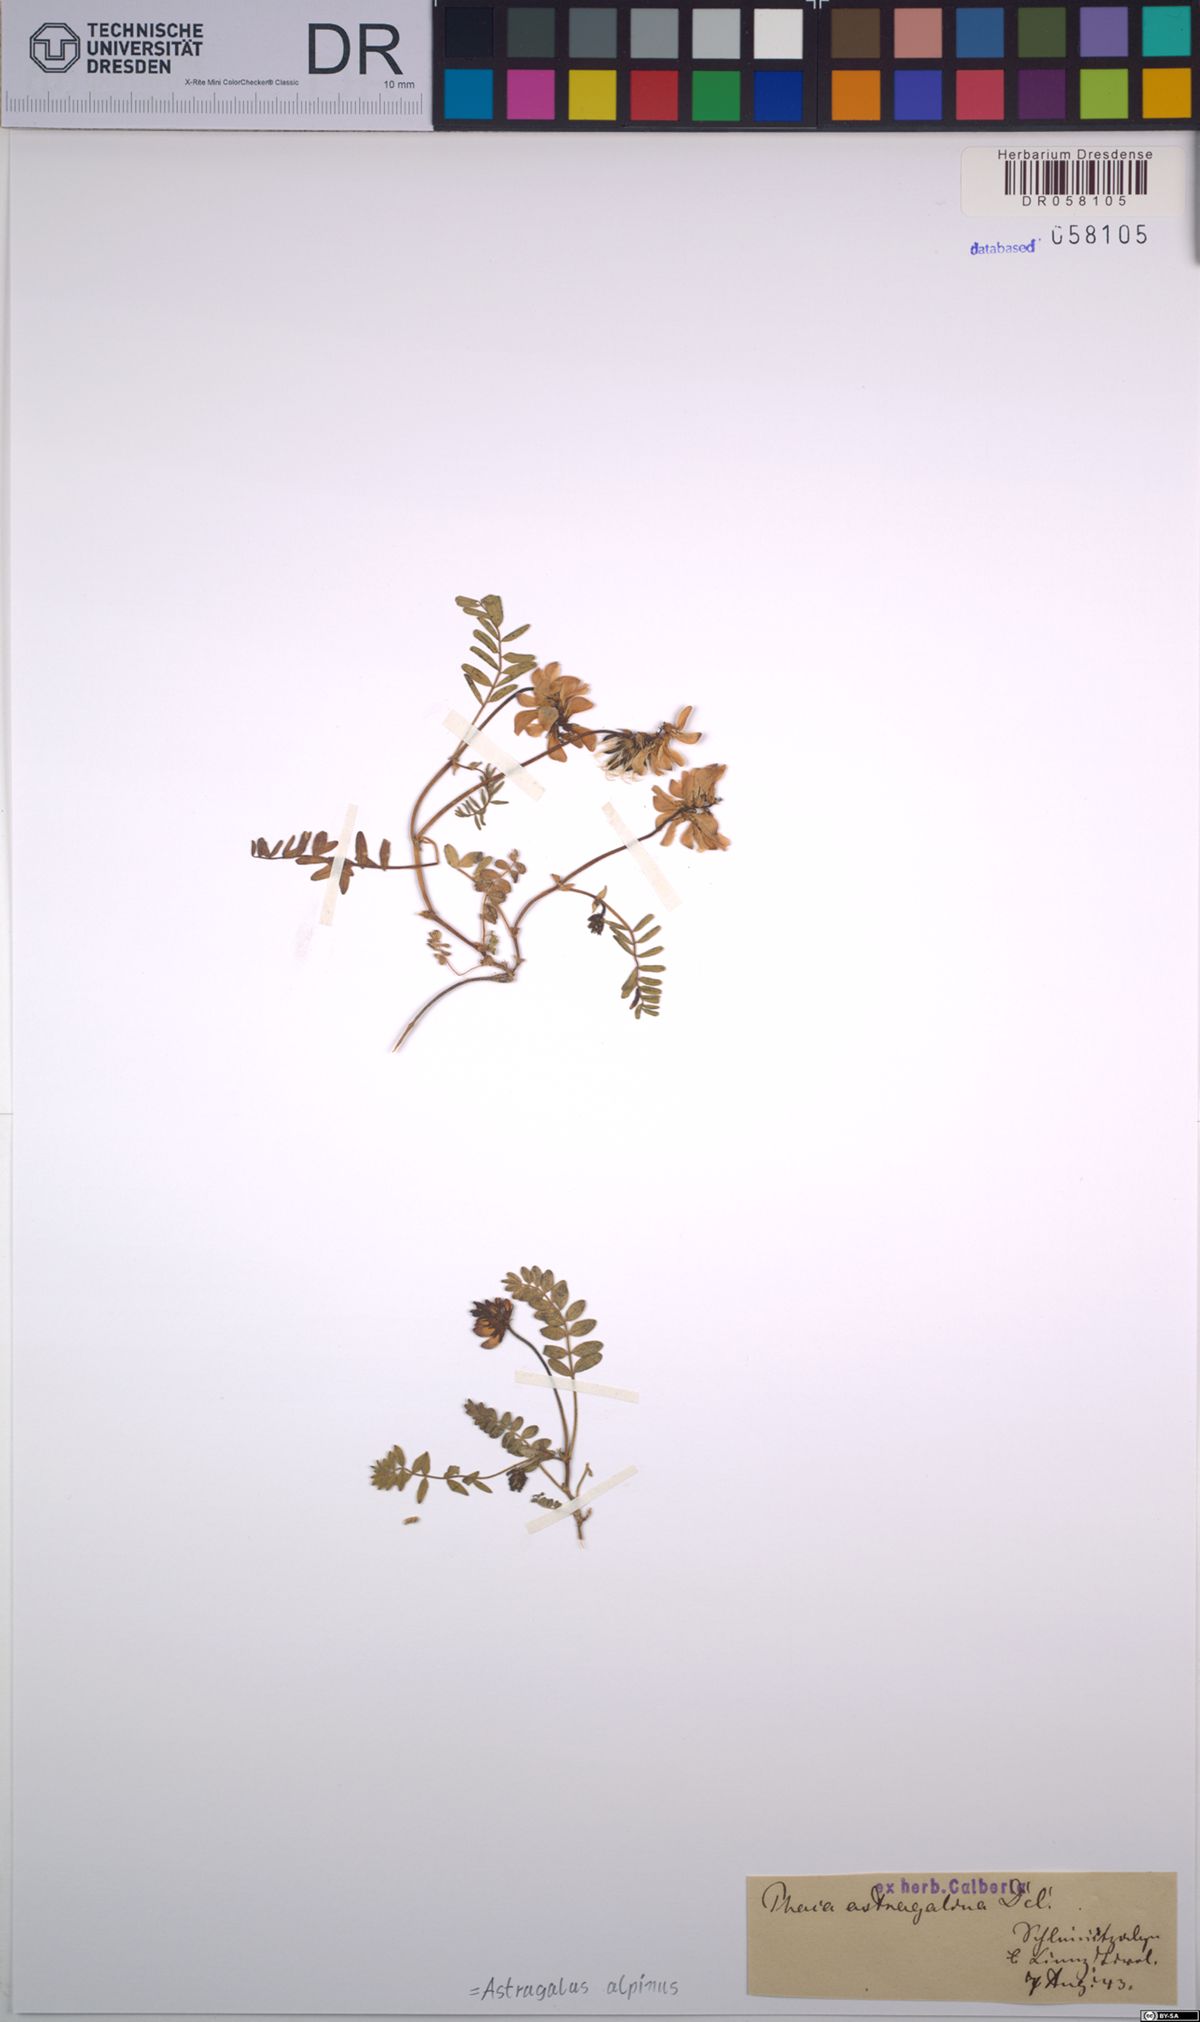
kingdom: Plantae
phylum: Tracheophyta
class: Magnoliopsida
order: Fabales
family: Fabaceae
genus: Astragalus
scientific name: Astragalus alpinus
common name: Alpine milk-vetch
